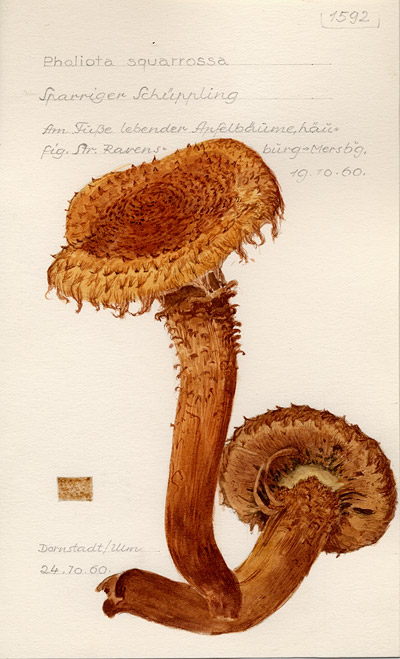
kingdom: Fungi
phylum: Basidiomycota
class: Agaricomycetes
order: Agaricales
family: Strophariaceae
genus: Pholiota
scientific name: Pholiota squarrosa
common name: Shaggy pholiota
